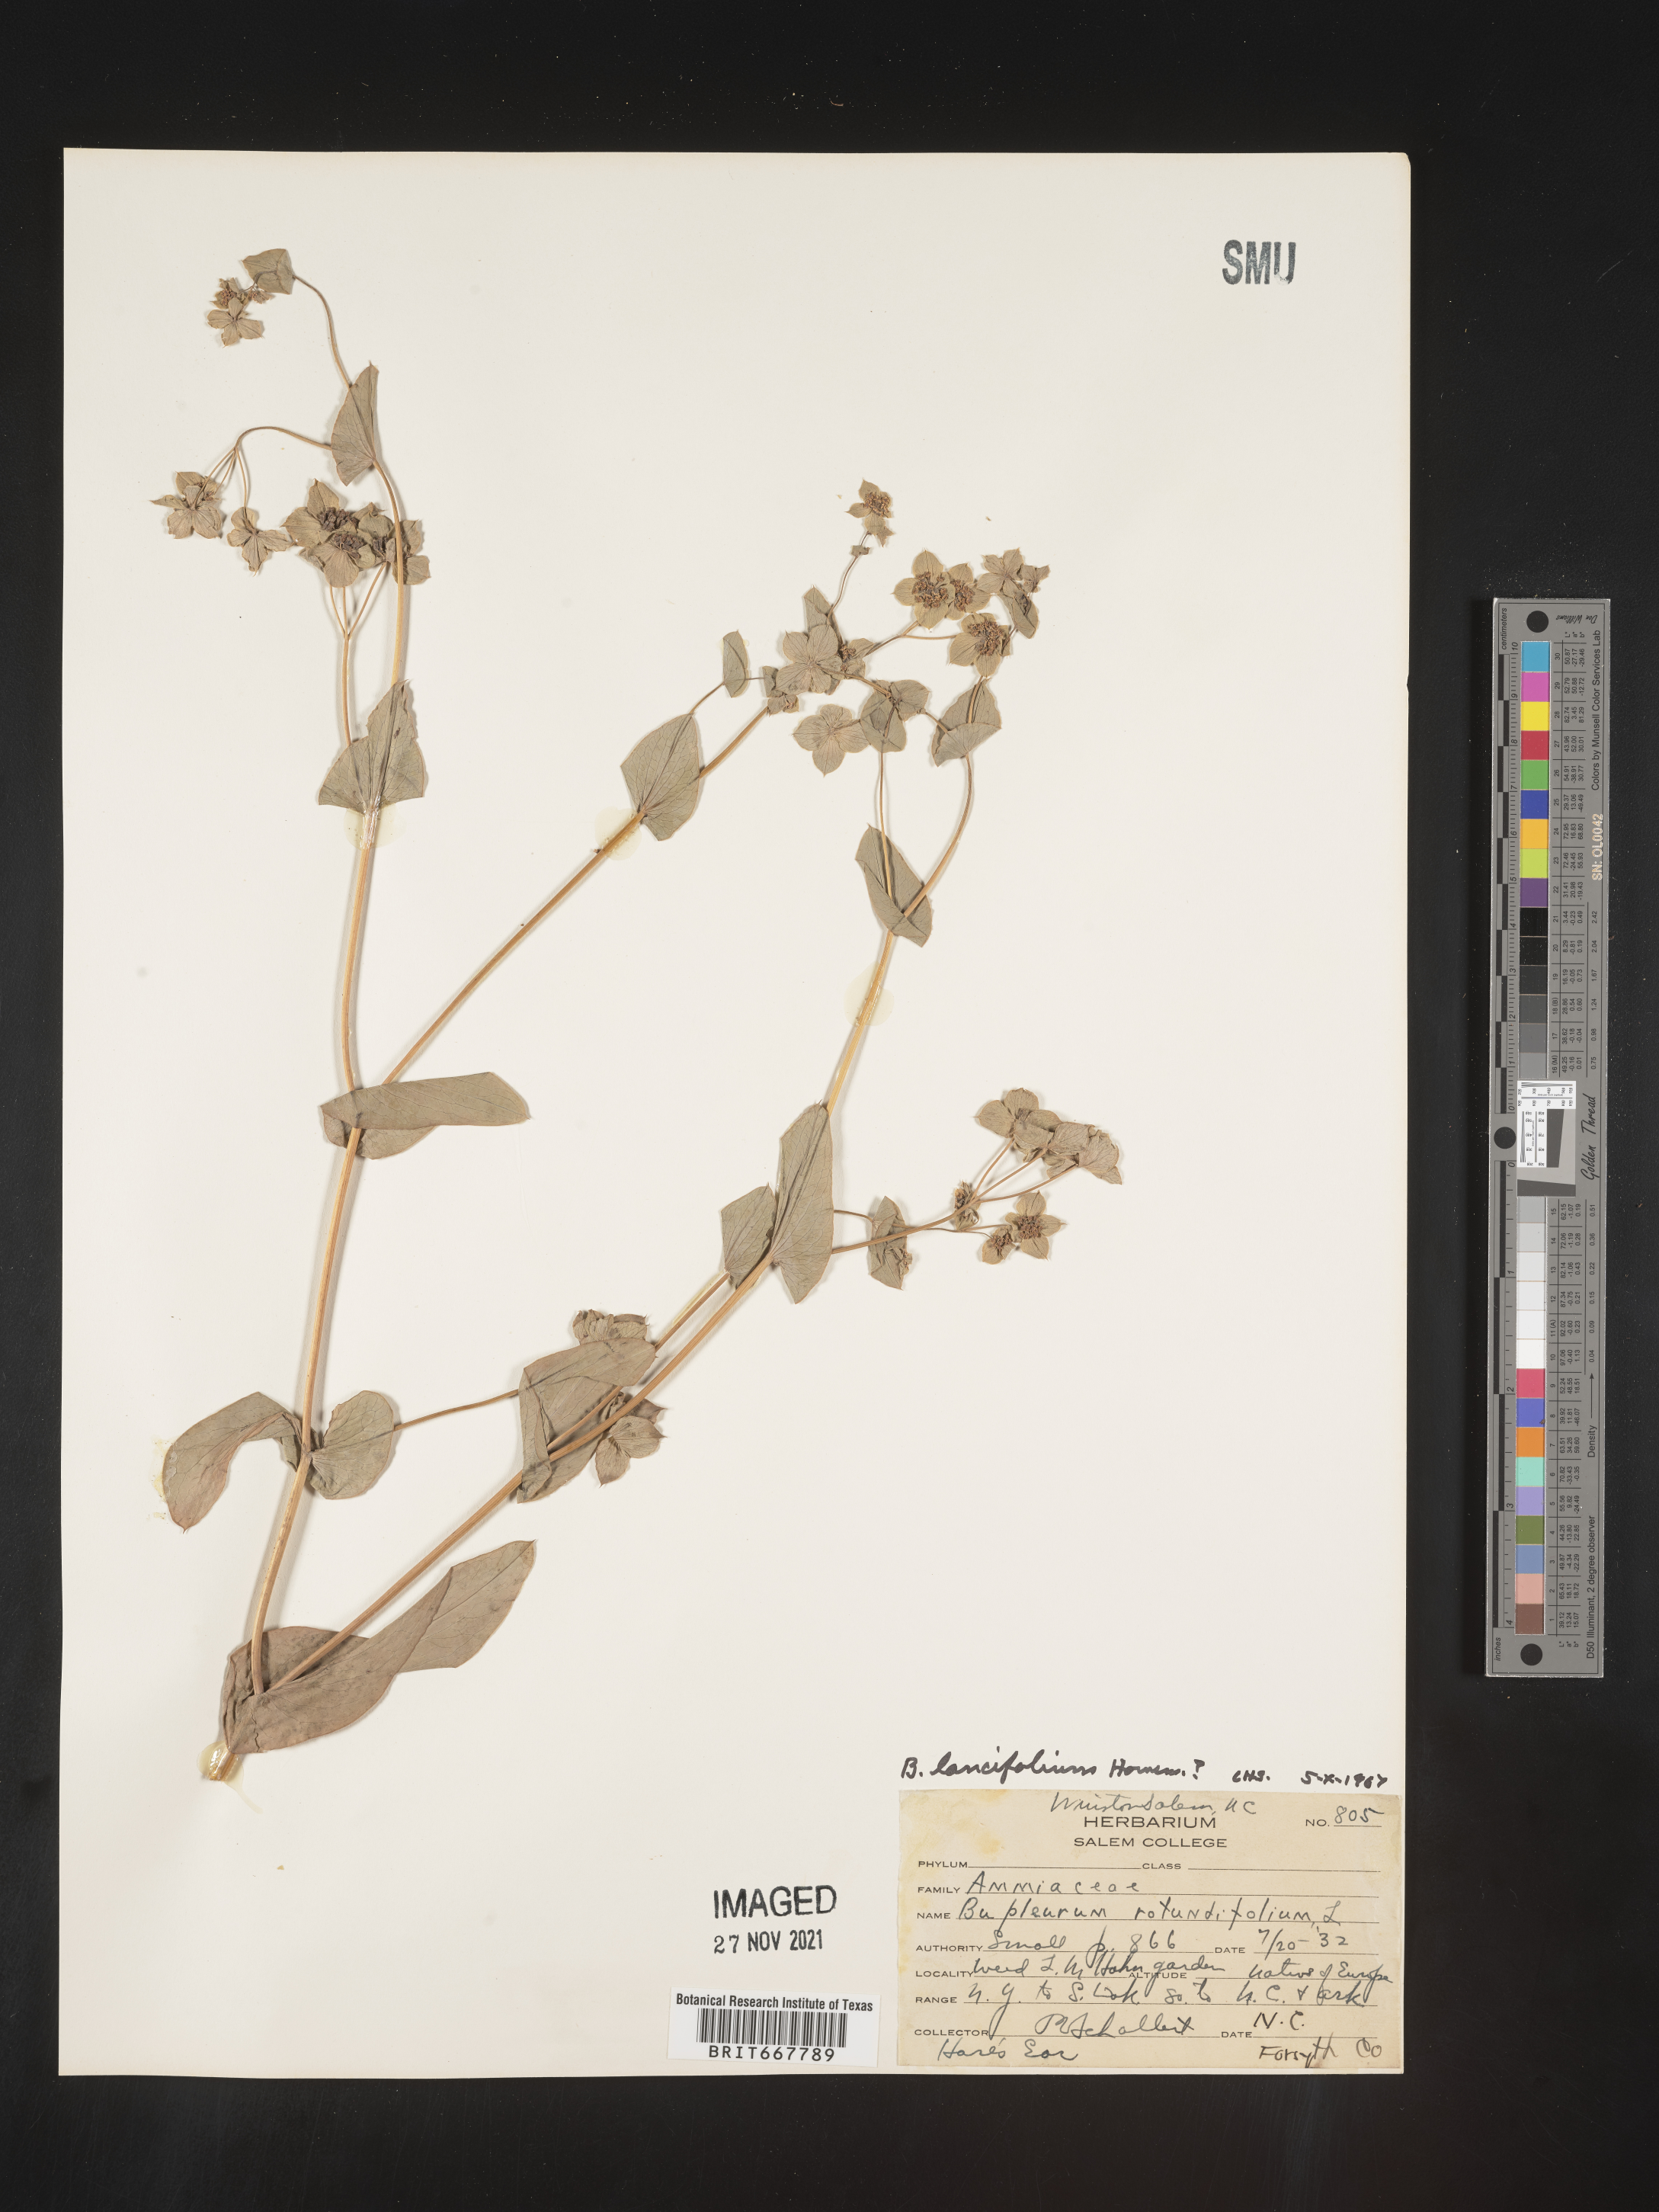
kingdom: Plantae
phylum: Tracheophyta
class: Magnoliopsida
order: Apiales
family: Apiaceae
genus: Bupleurum
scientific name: Bupleurum
